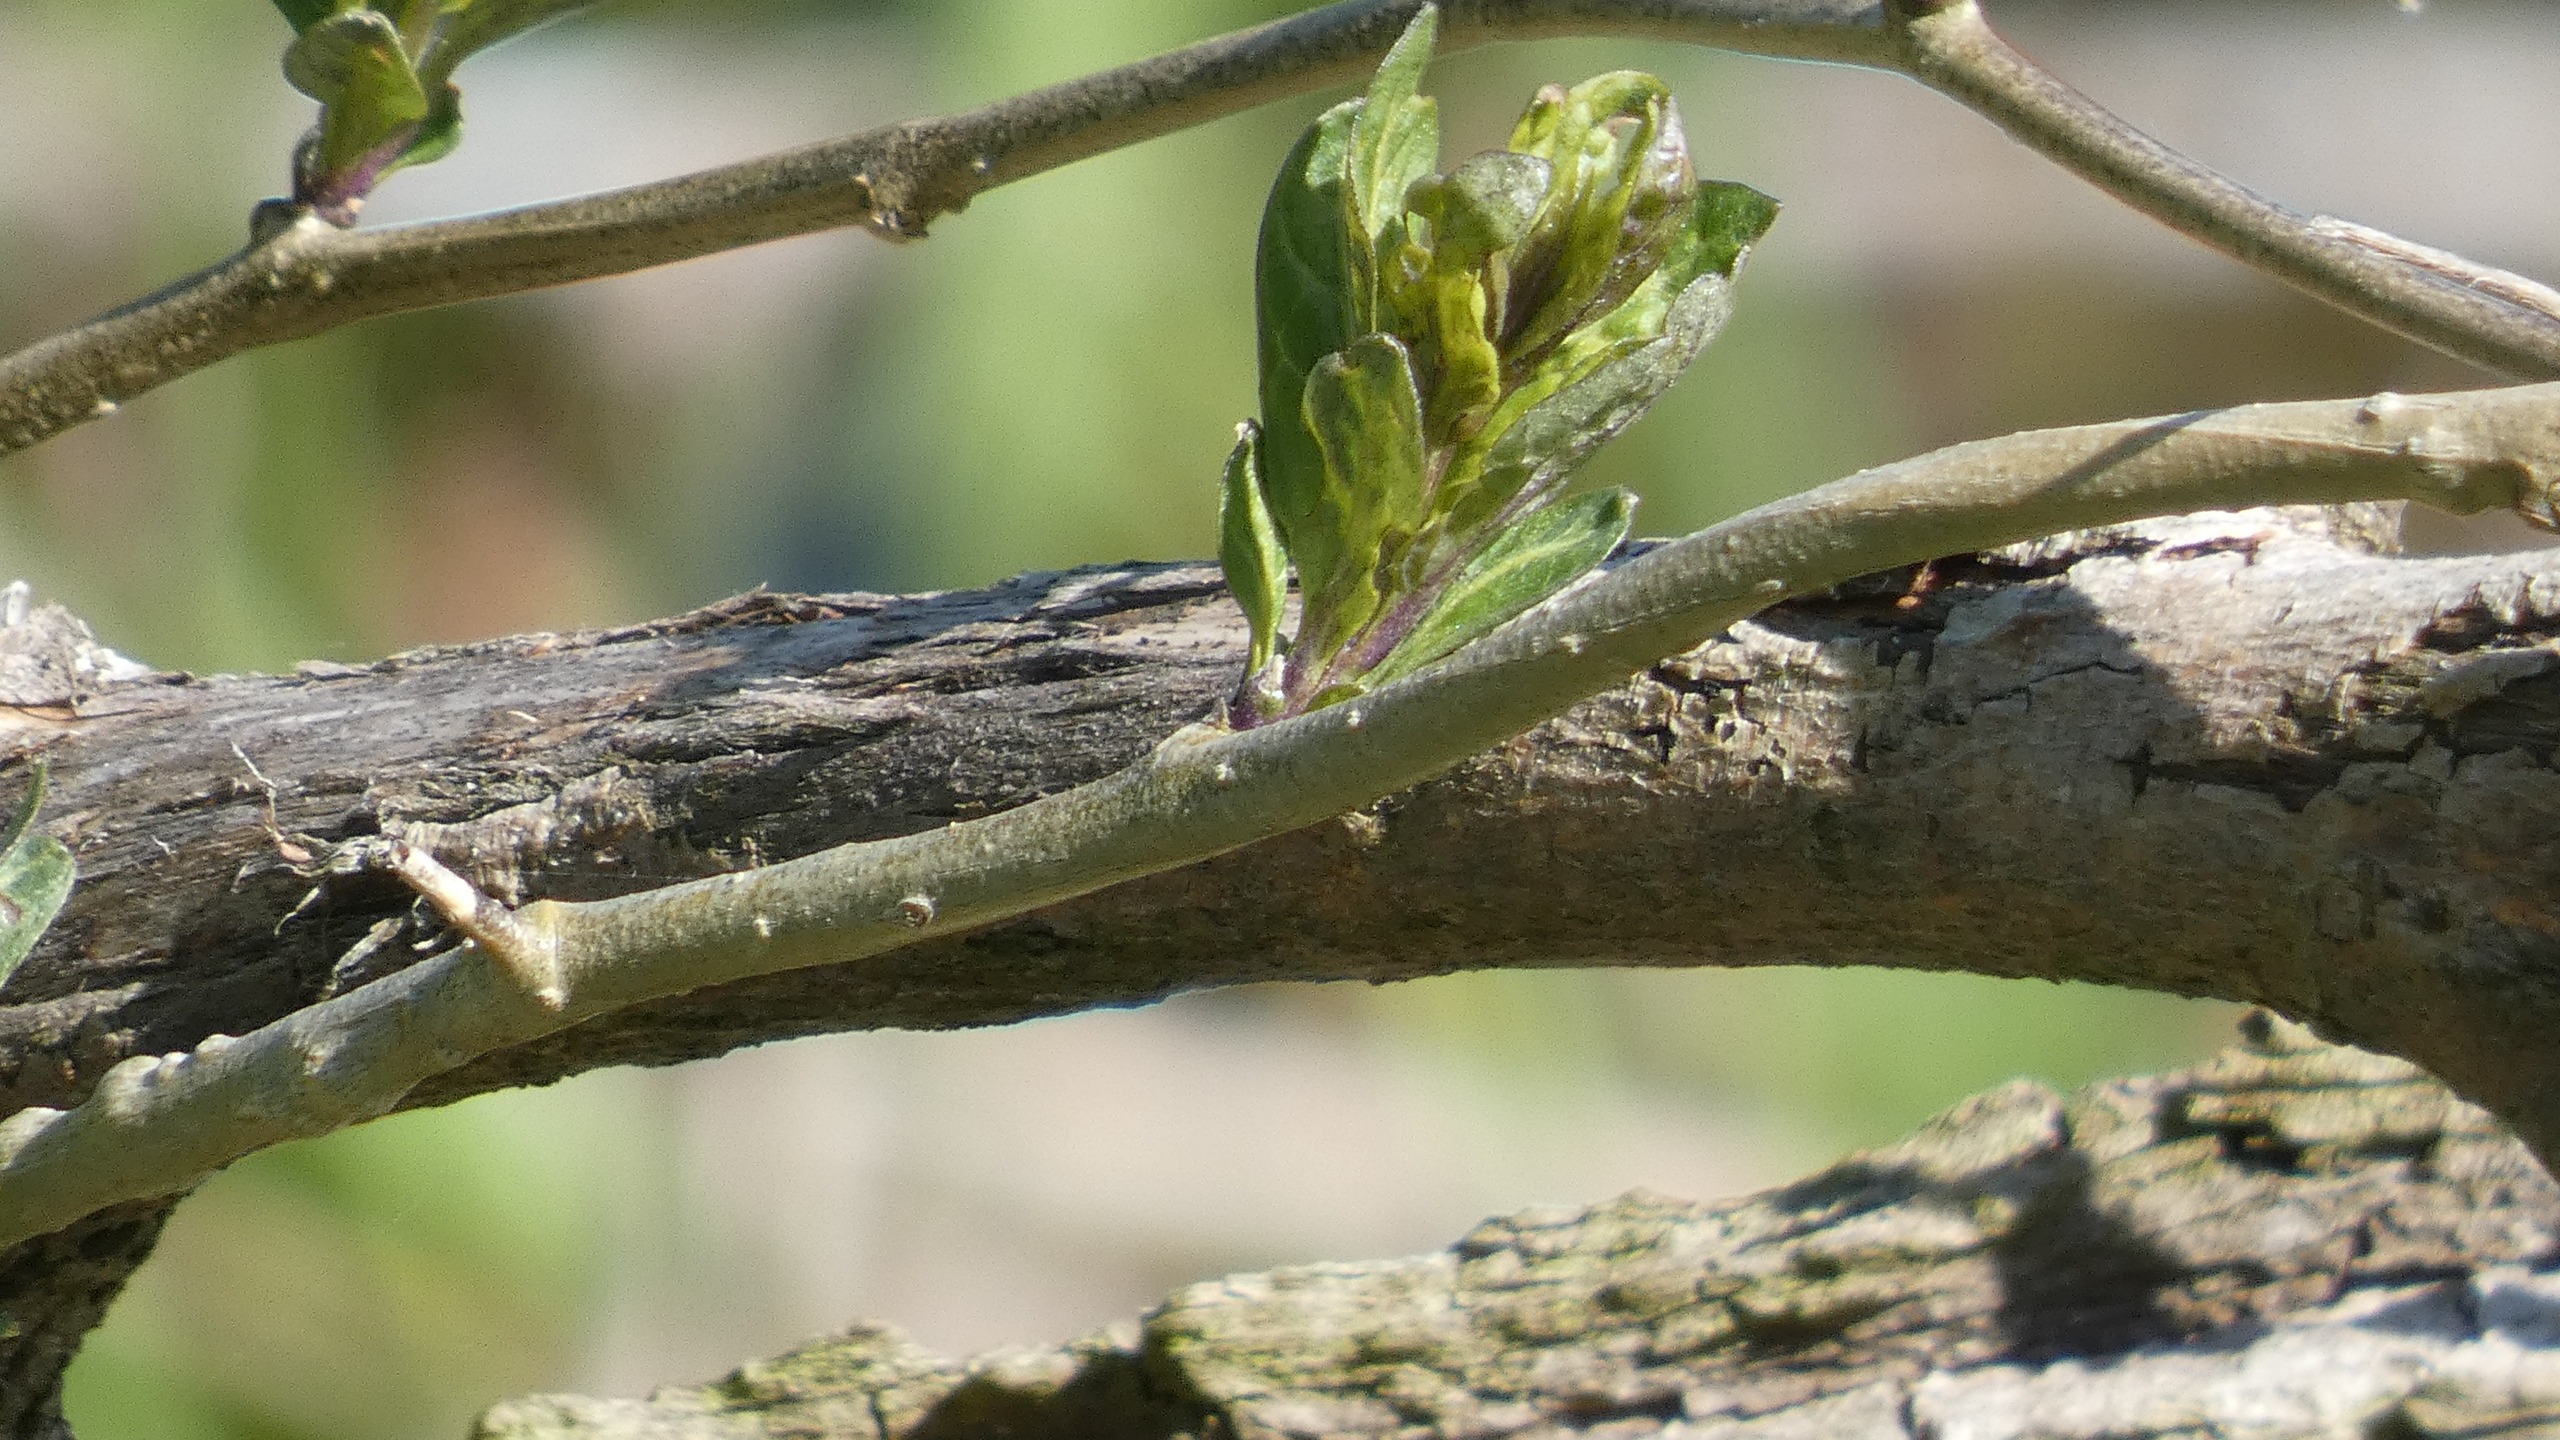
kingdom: Plantae
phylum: Tracheophyta
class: Magnoliopsida
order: Dipsacales
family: Caprifoliaceae
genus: Lonicera
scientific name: Lonicera periclymenum
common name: Almindelig gedeblad
